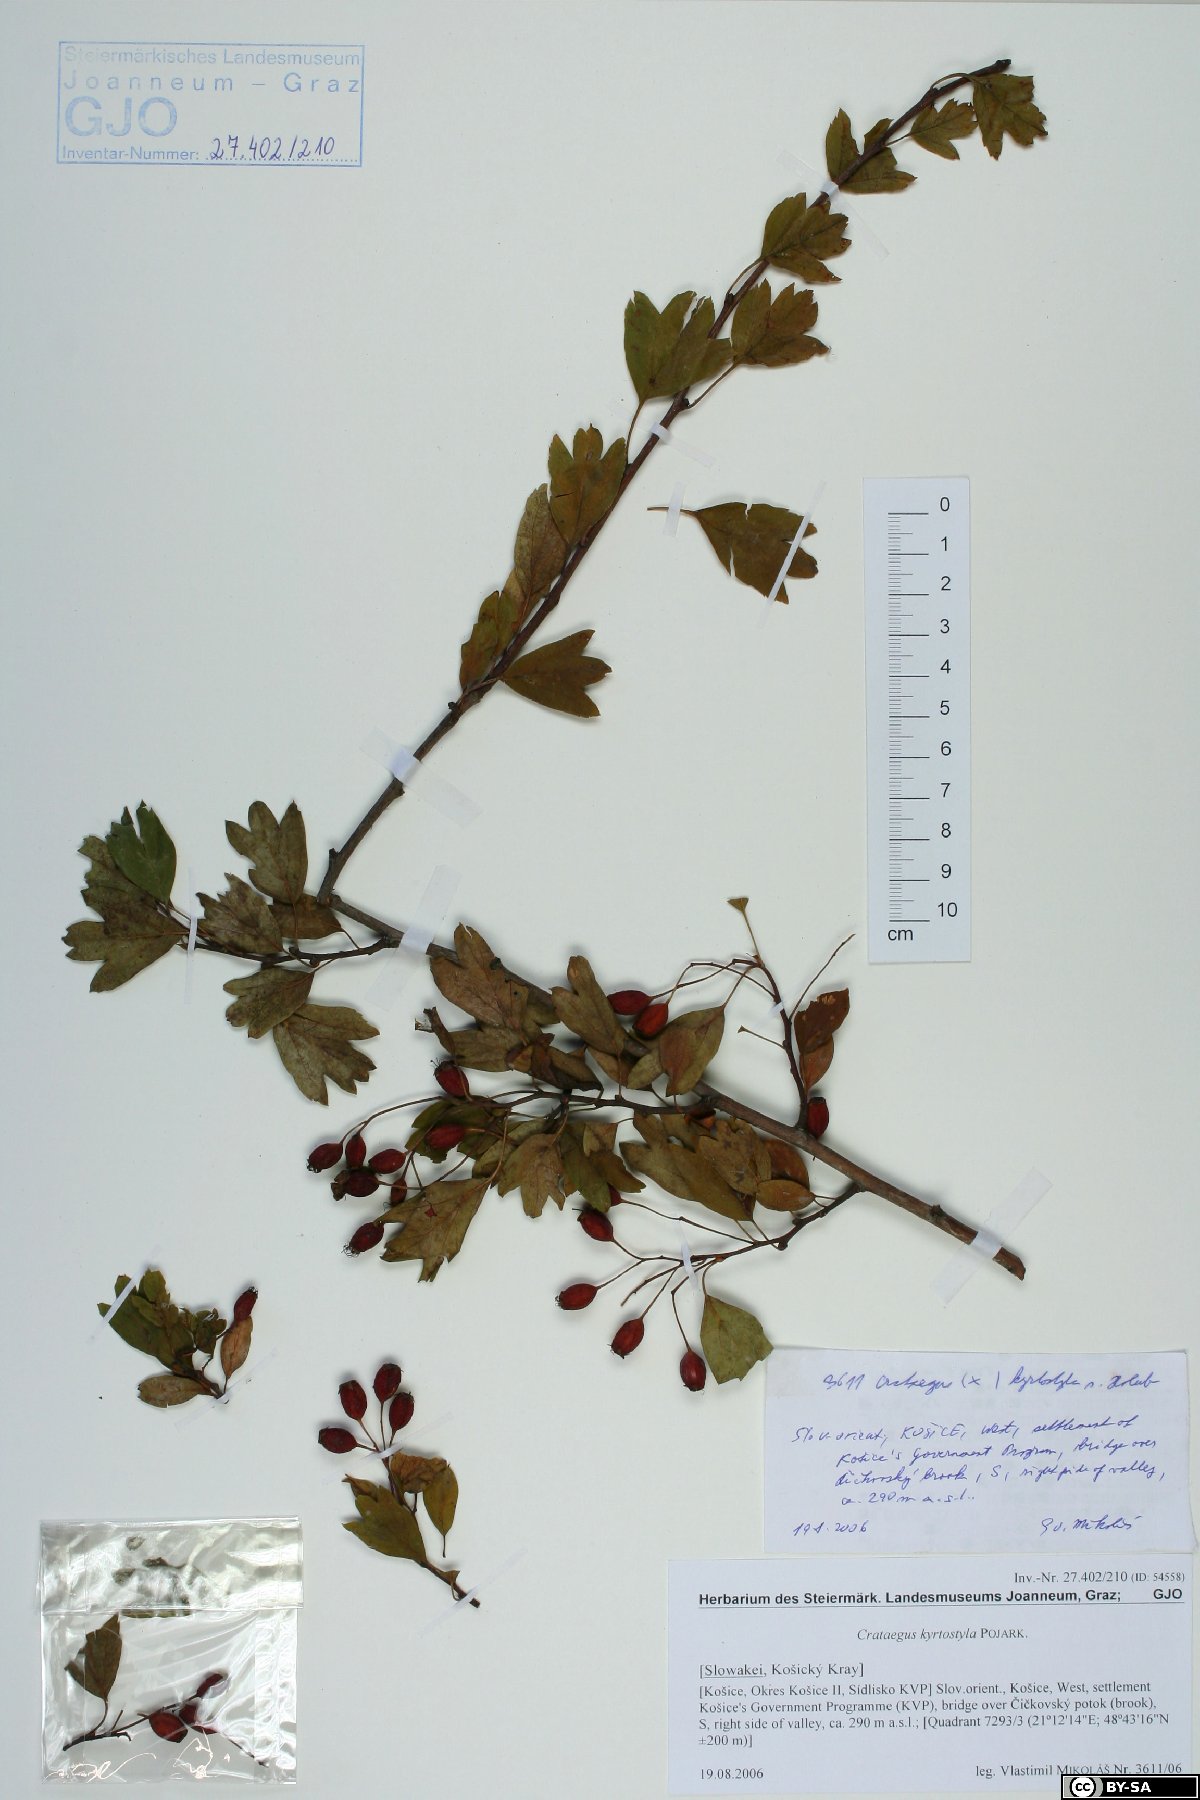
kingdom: Plantae
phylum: Tracheophyta
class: Magnoliopsida
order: Rosales
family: Rosaceae
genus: Crataegus
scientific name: Crataegus kyrtostyla
